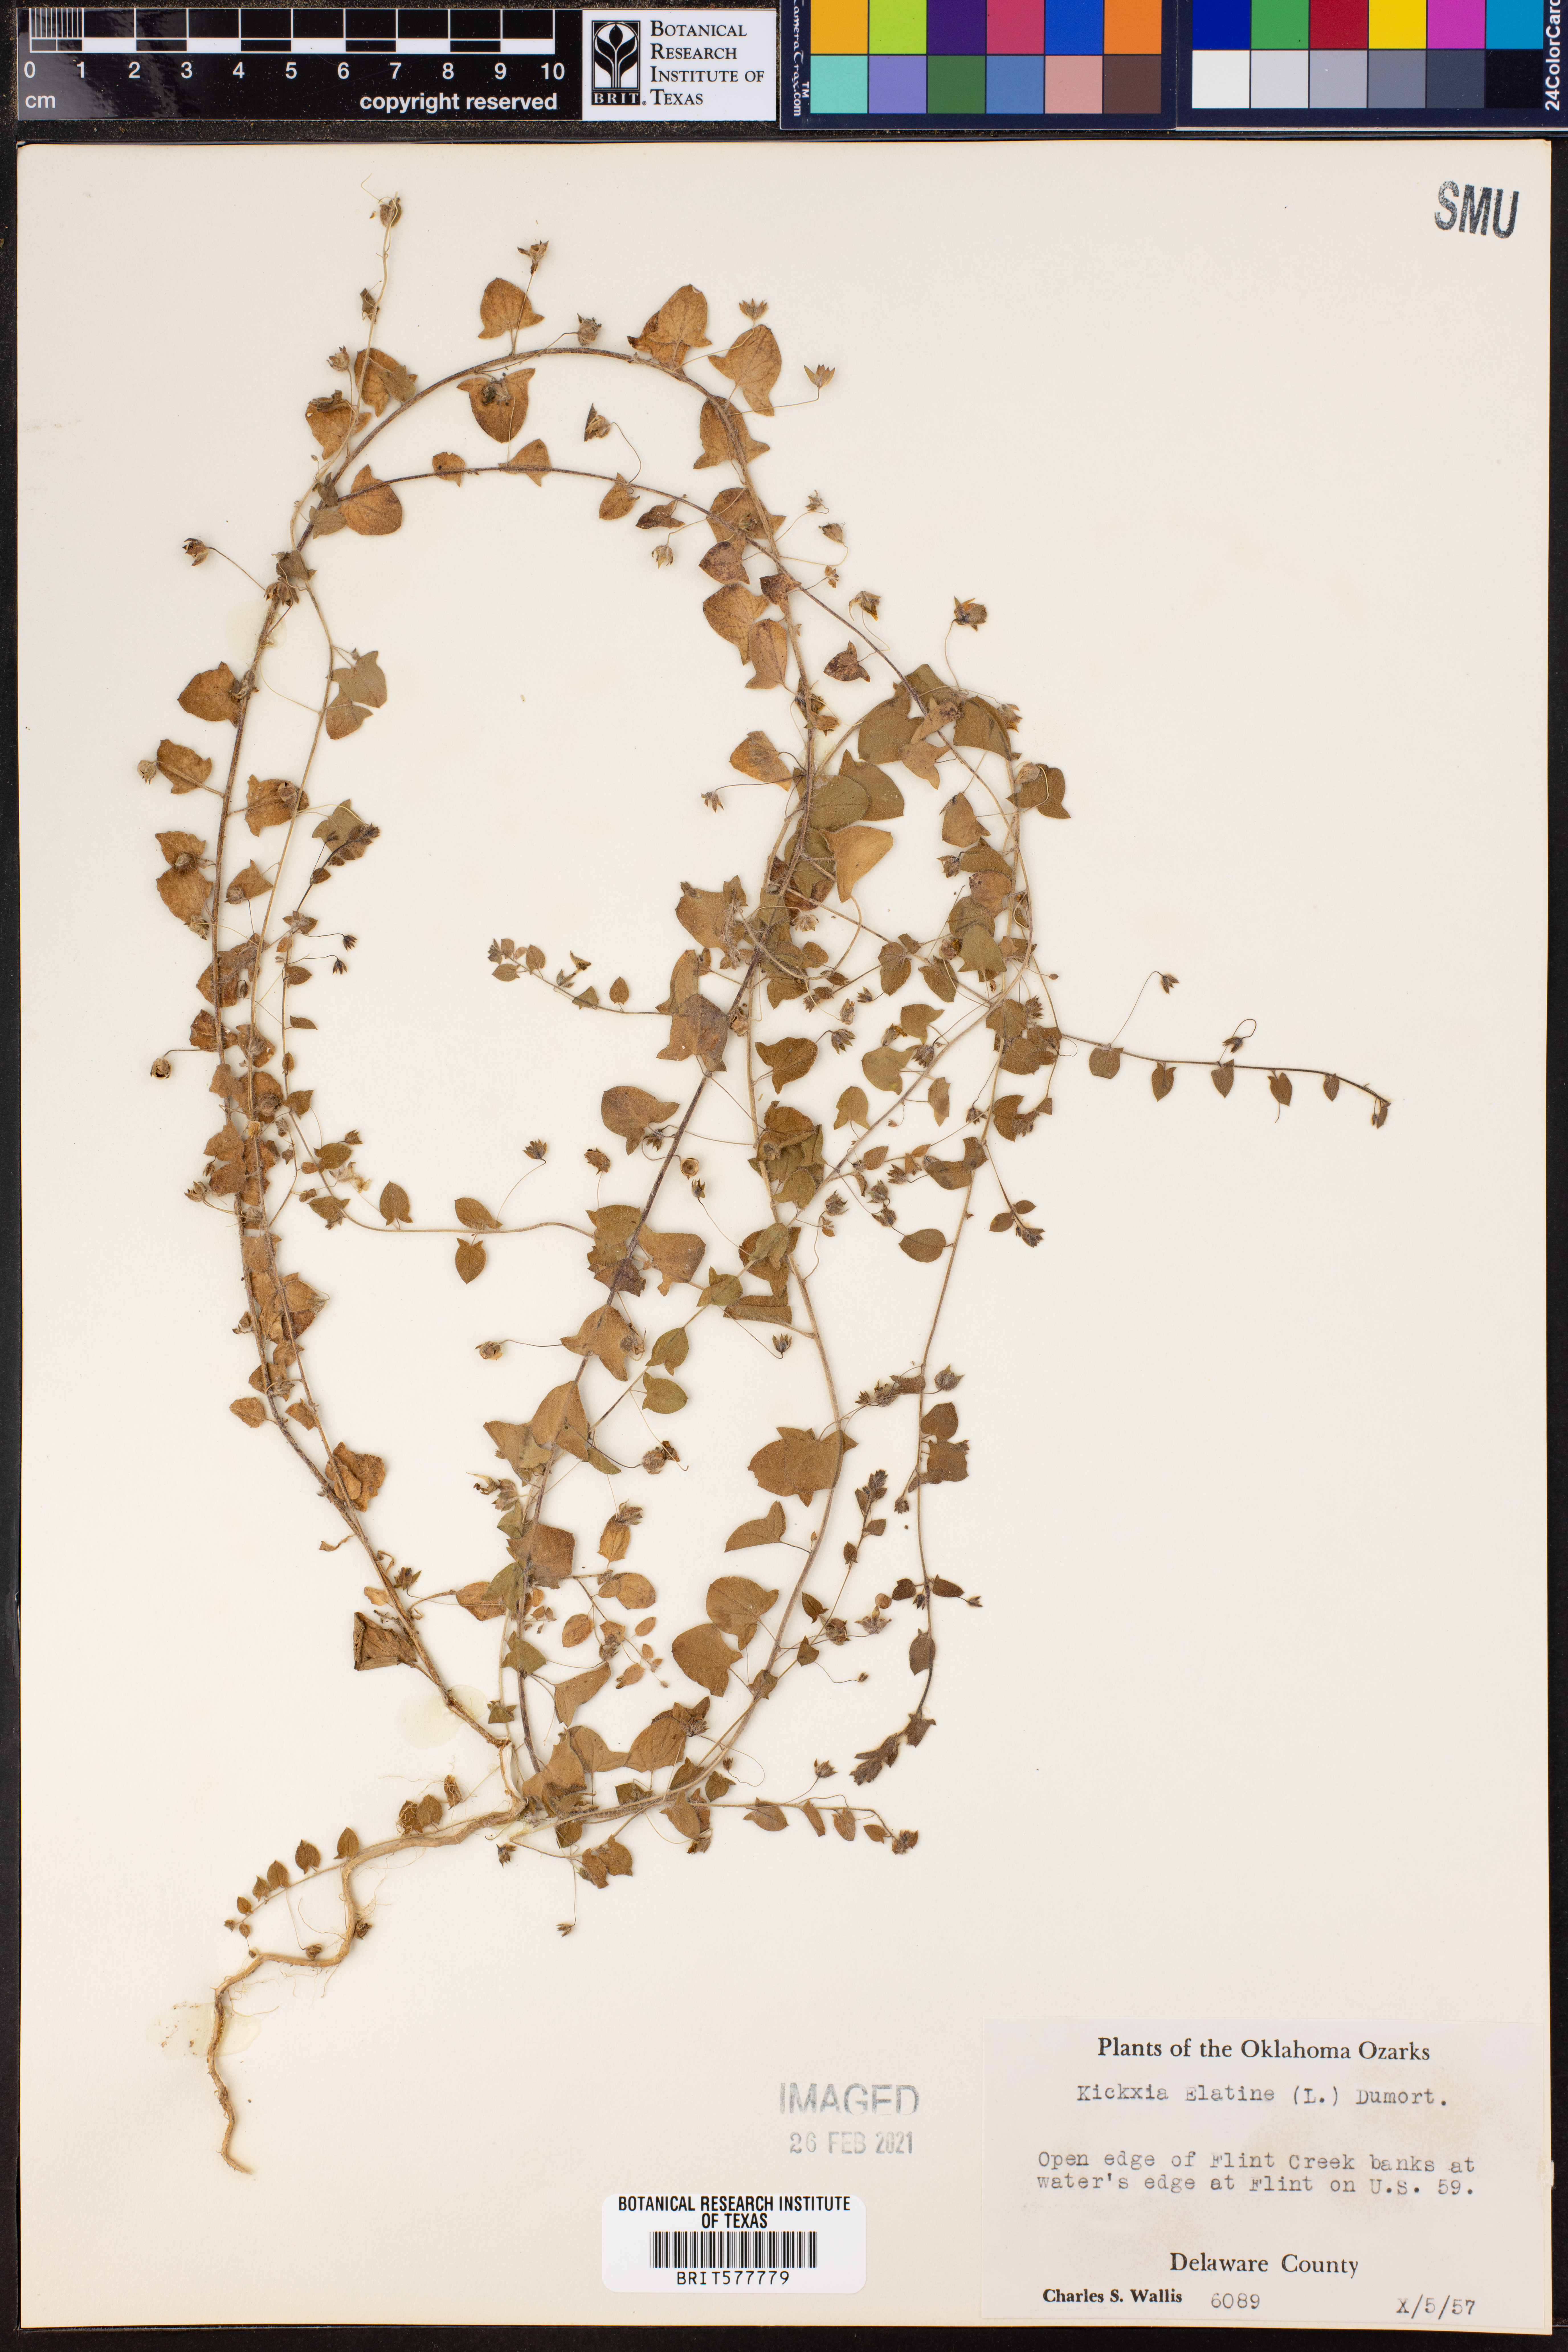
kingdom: Plantae
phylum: Tracheophyta
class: Magnoliopsida
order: Lamiales
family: Plantaginaceae
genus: Kickxia
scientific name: Kickxia elatine
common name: Sharp-leaved fluellen
